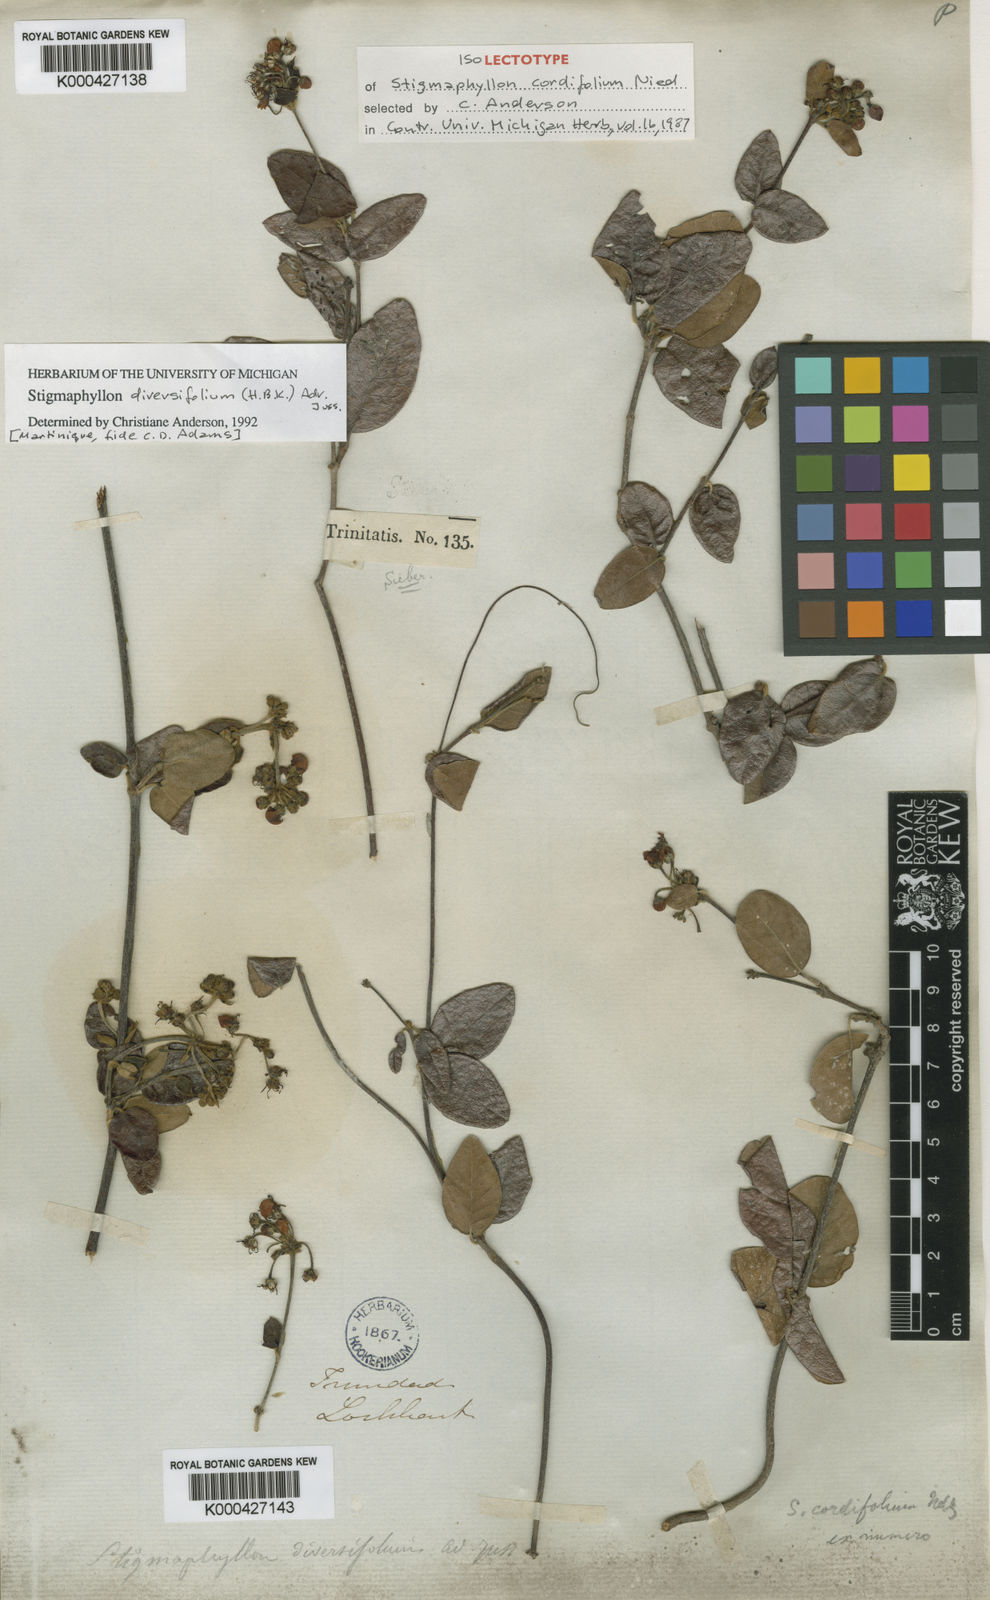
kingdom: Plantae
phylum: Tracheophyta
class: Magnoliopsida
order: Malpighiales
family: Malpighiaceae
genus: Stigmaphyllon
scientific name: Stigmaphyllon diversifolium
